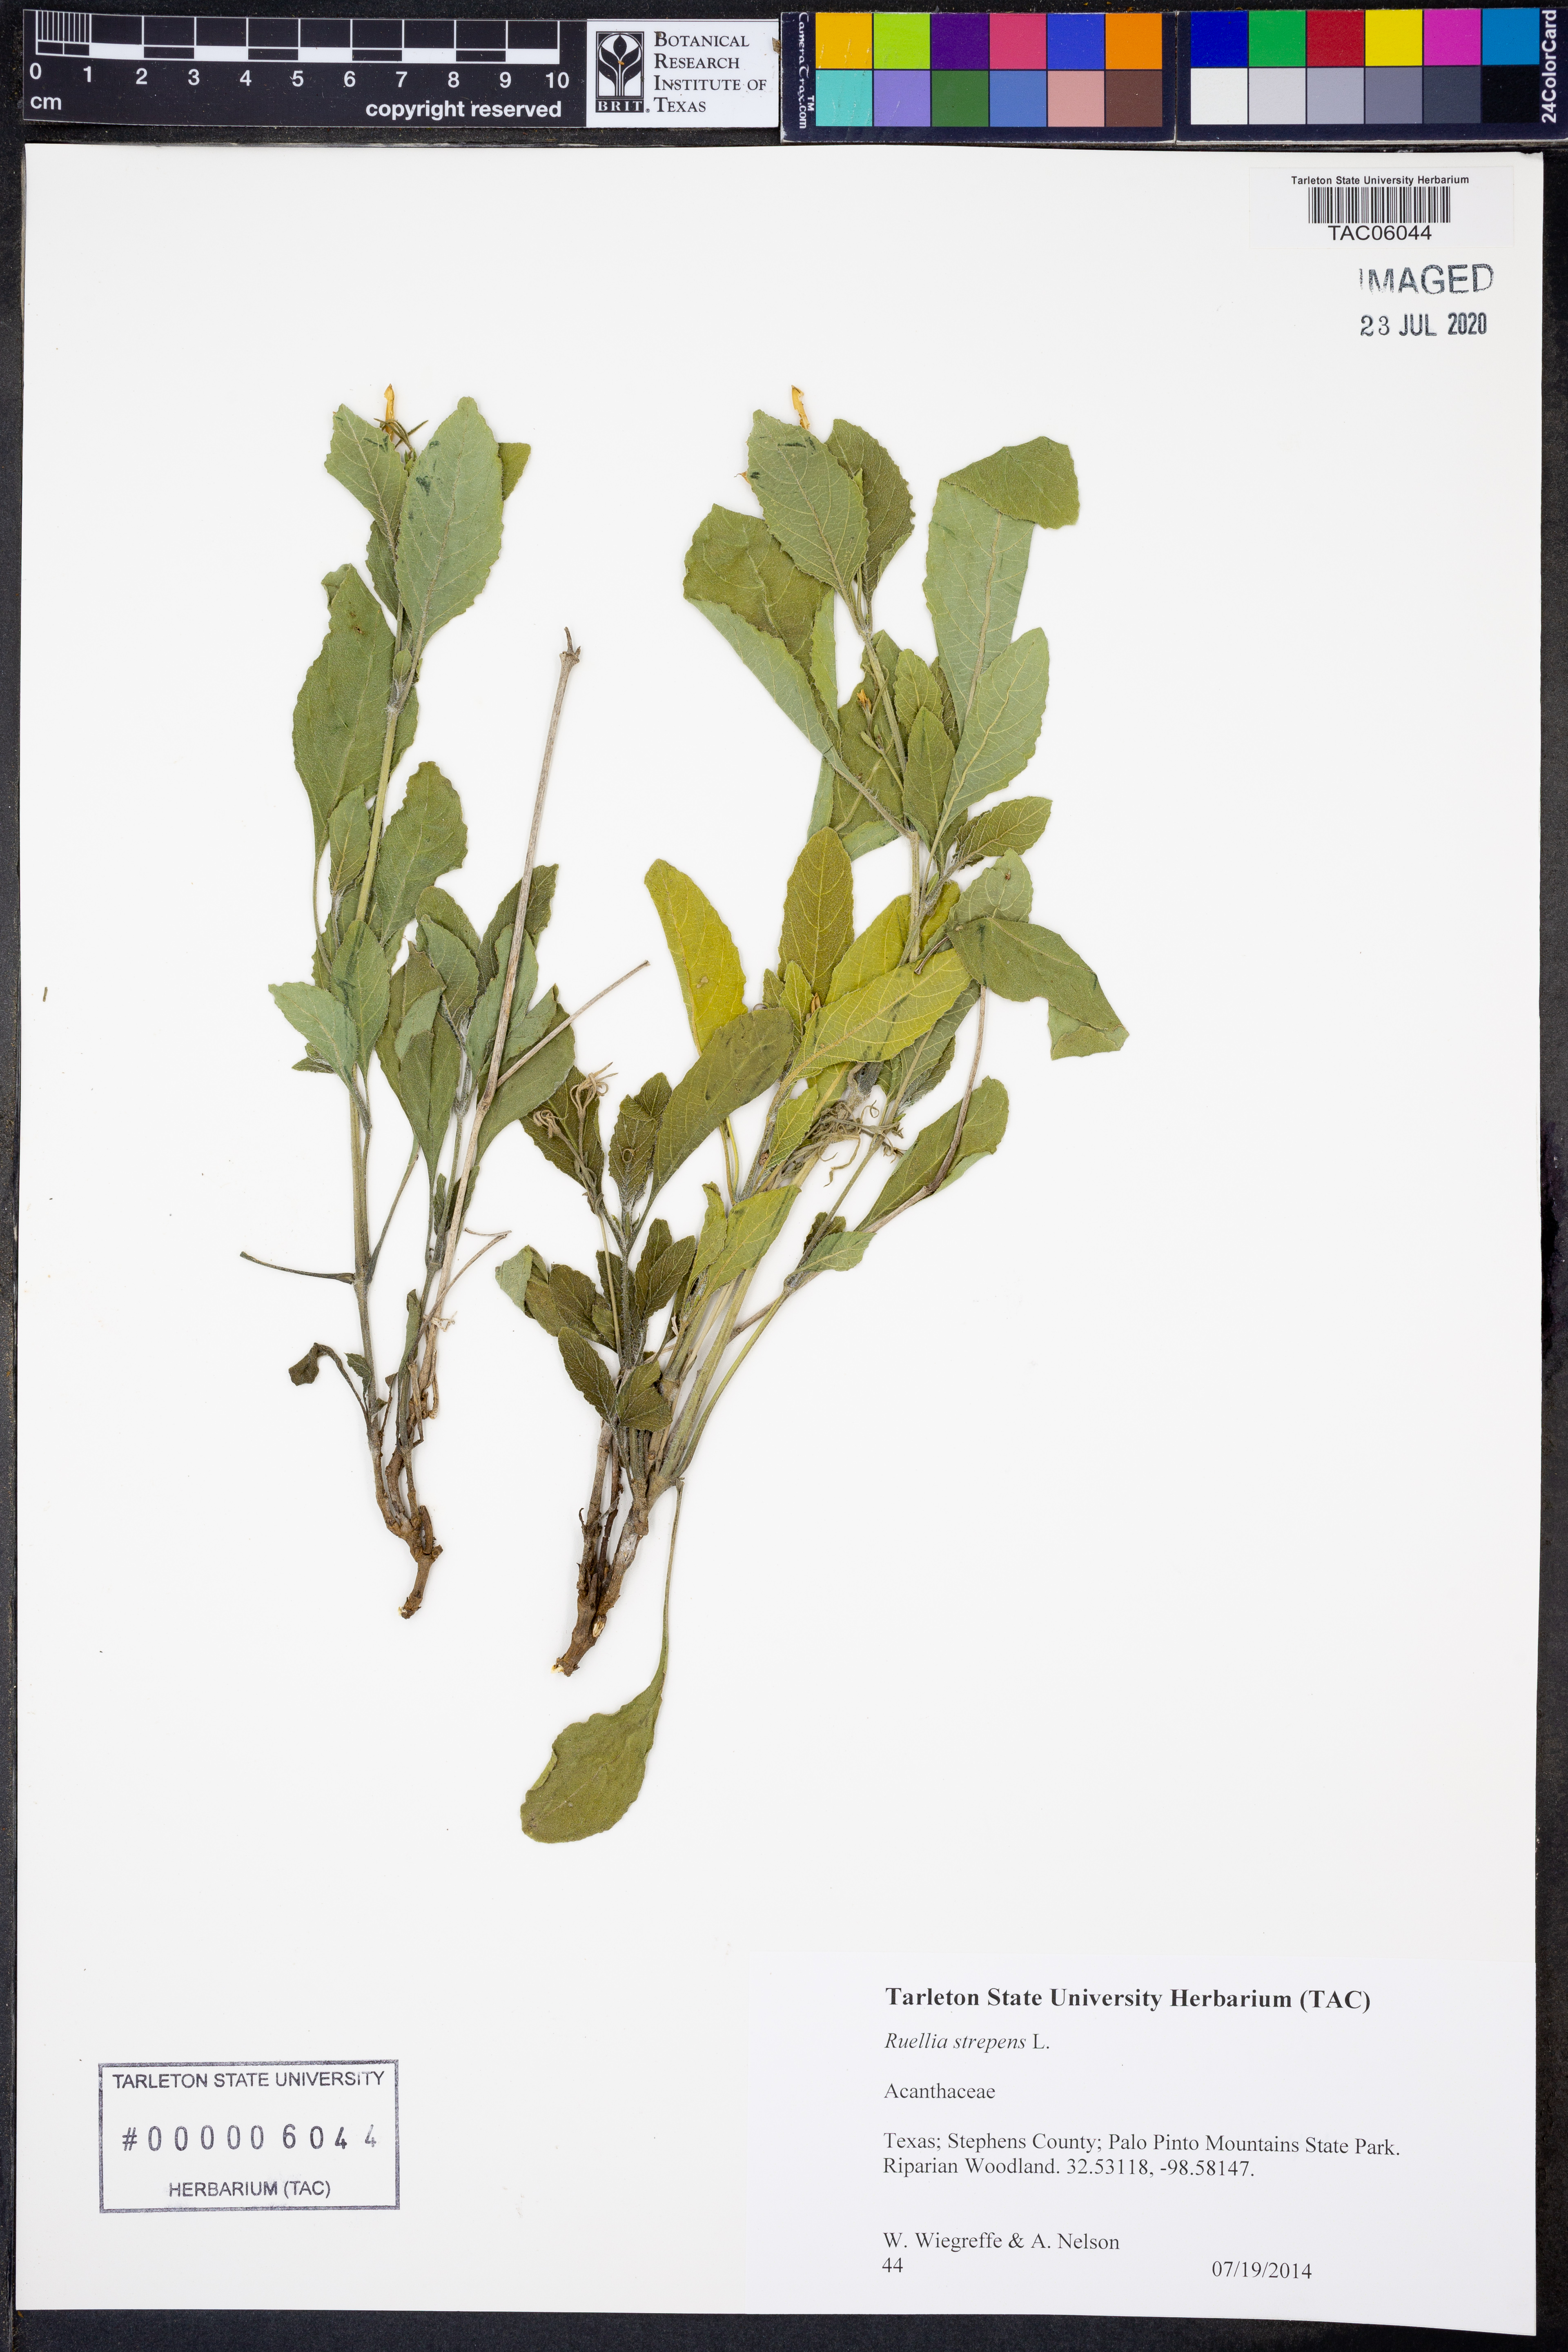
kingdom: Plantae
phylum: Tracheophyta
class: Magnoliopsida
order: Lamiales
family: Acanthaceae
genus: Ruellia
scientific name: Ruellia strepens
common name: Limestone wild petunia
